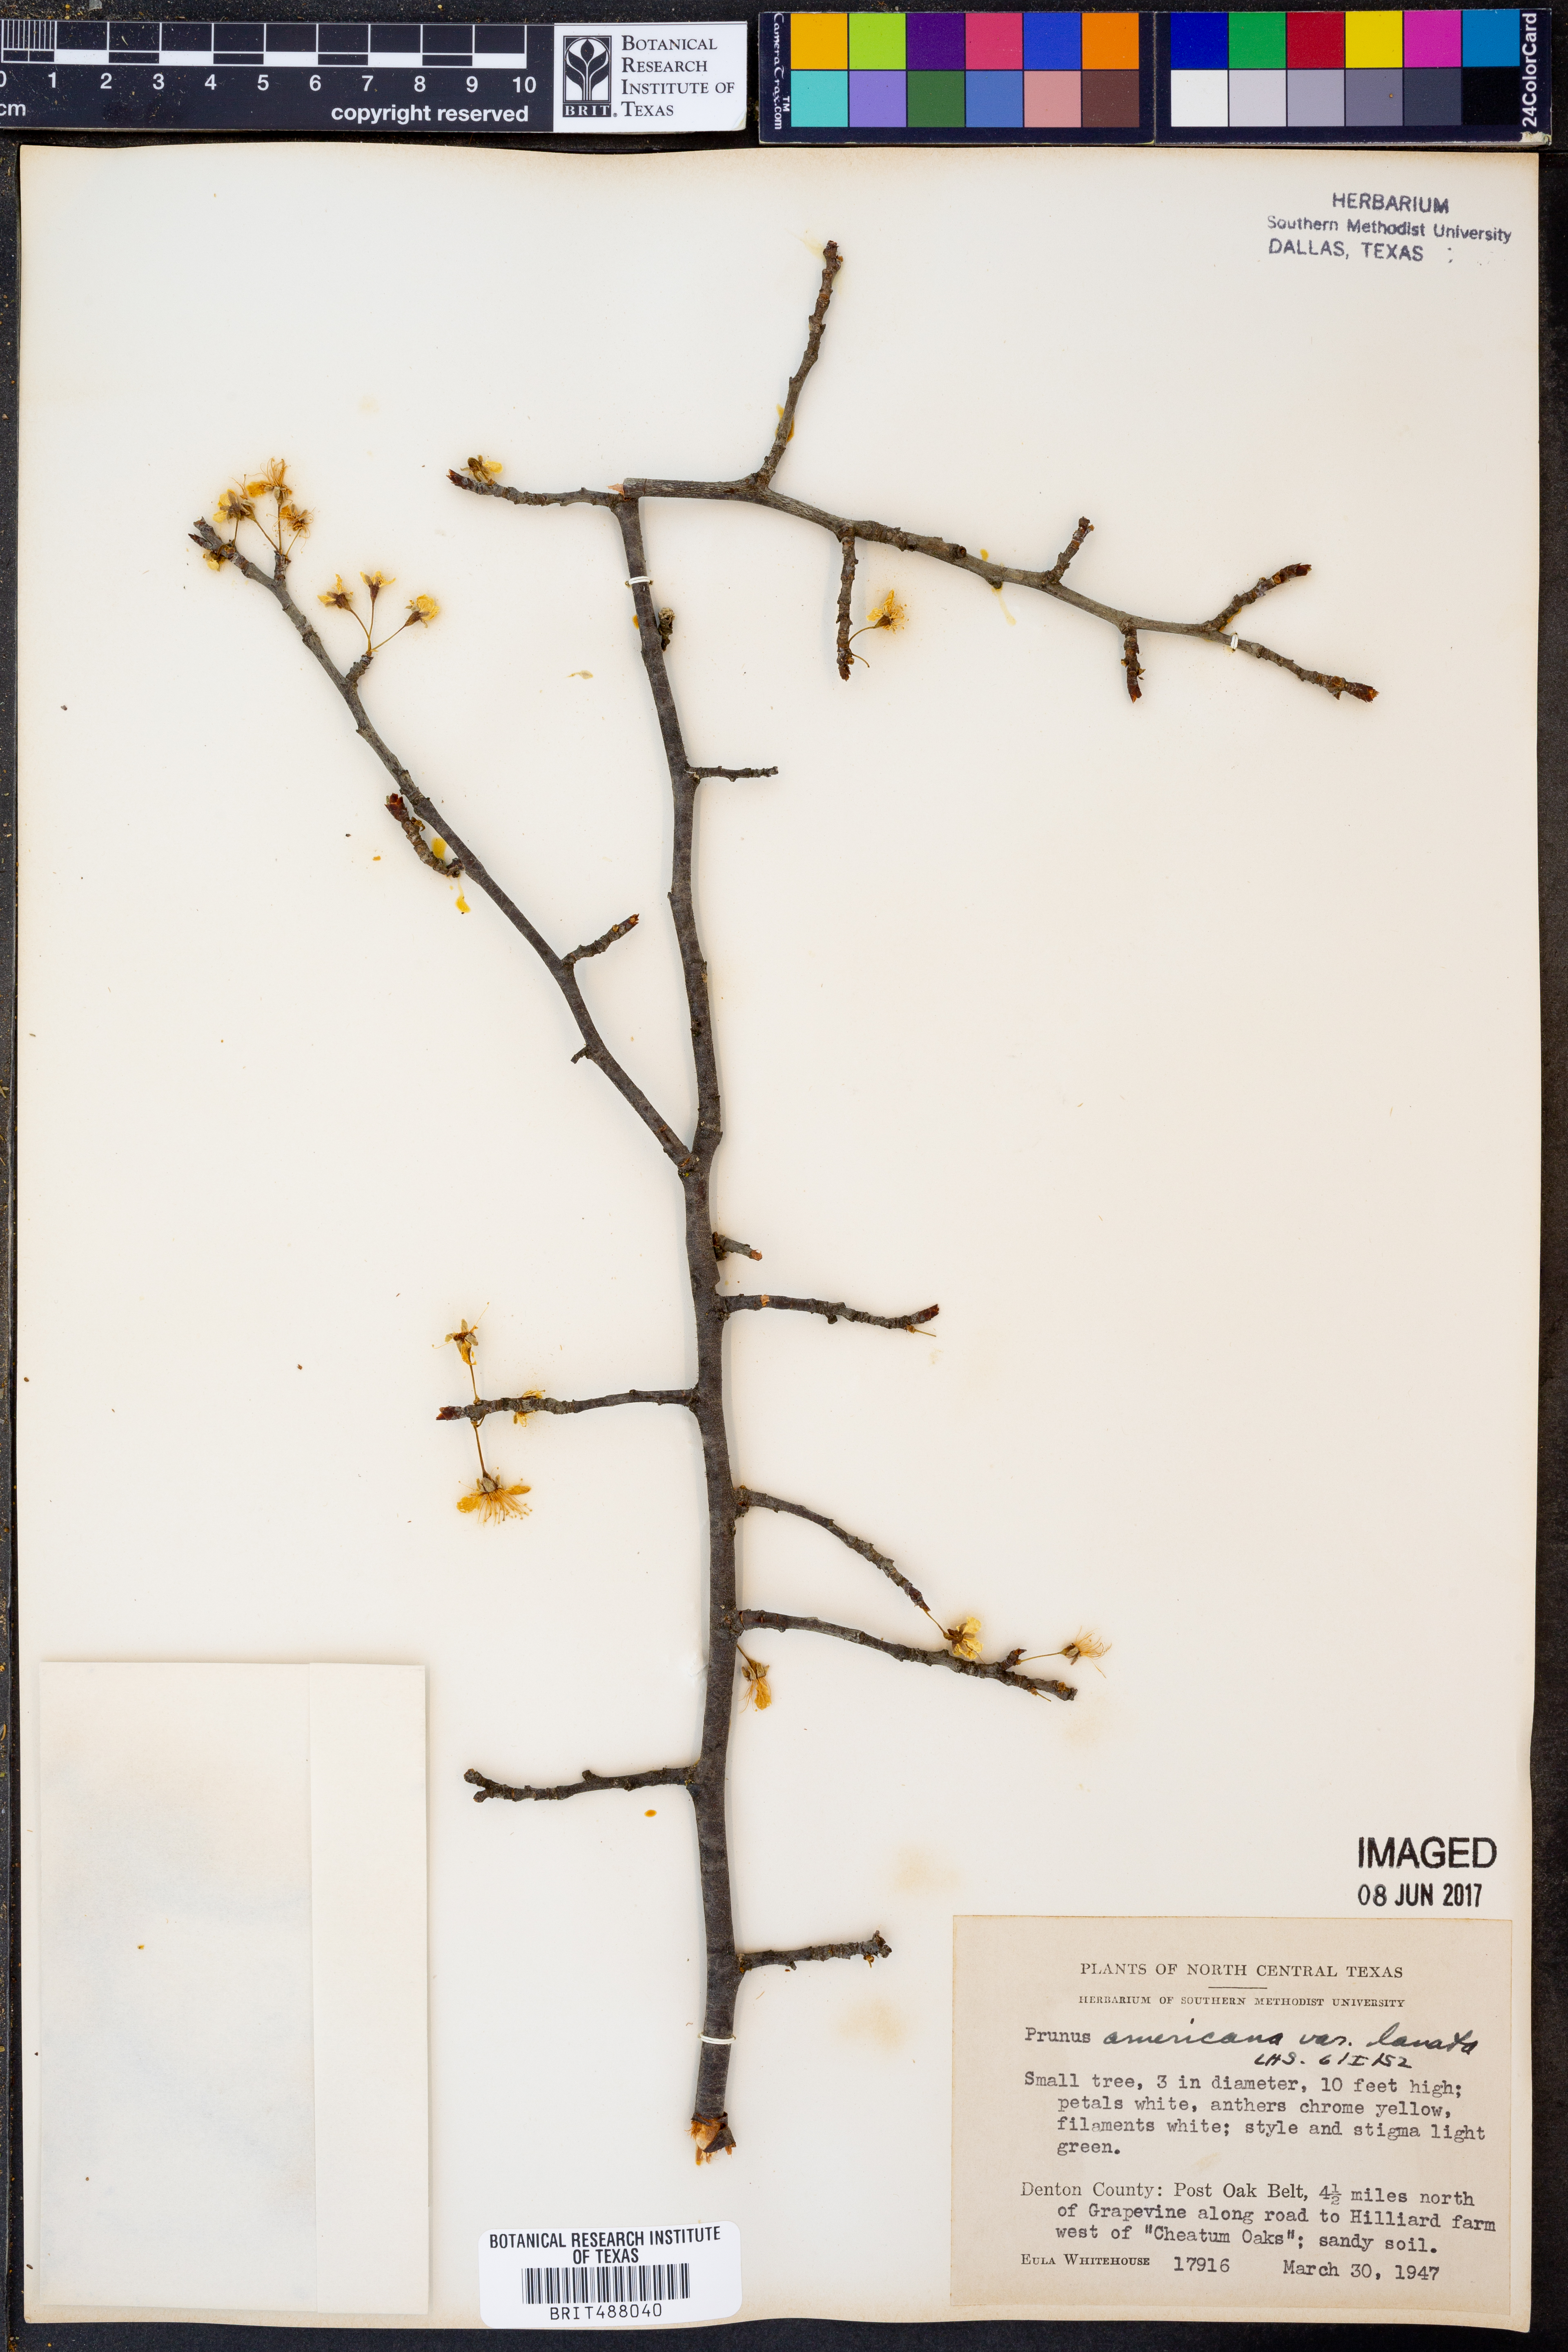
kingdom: Plantae
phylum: Tracheophyta
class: Magnoliopsida
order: Rosales
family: Rosaceae
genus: Prunus
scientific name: Prunus mexicana
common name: Mexican plum
